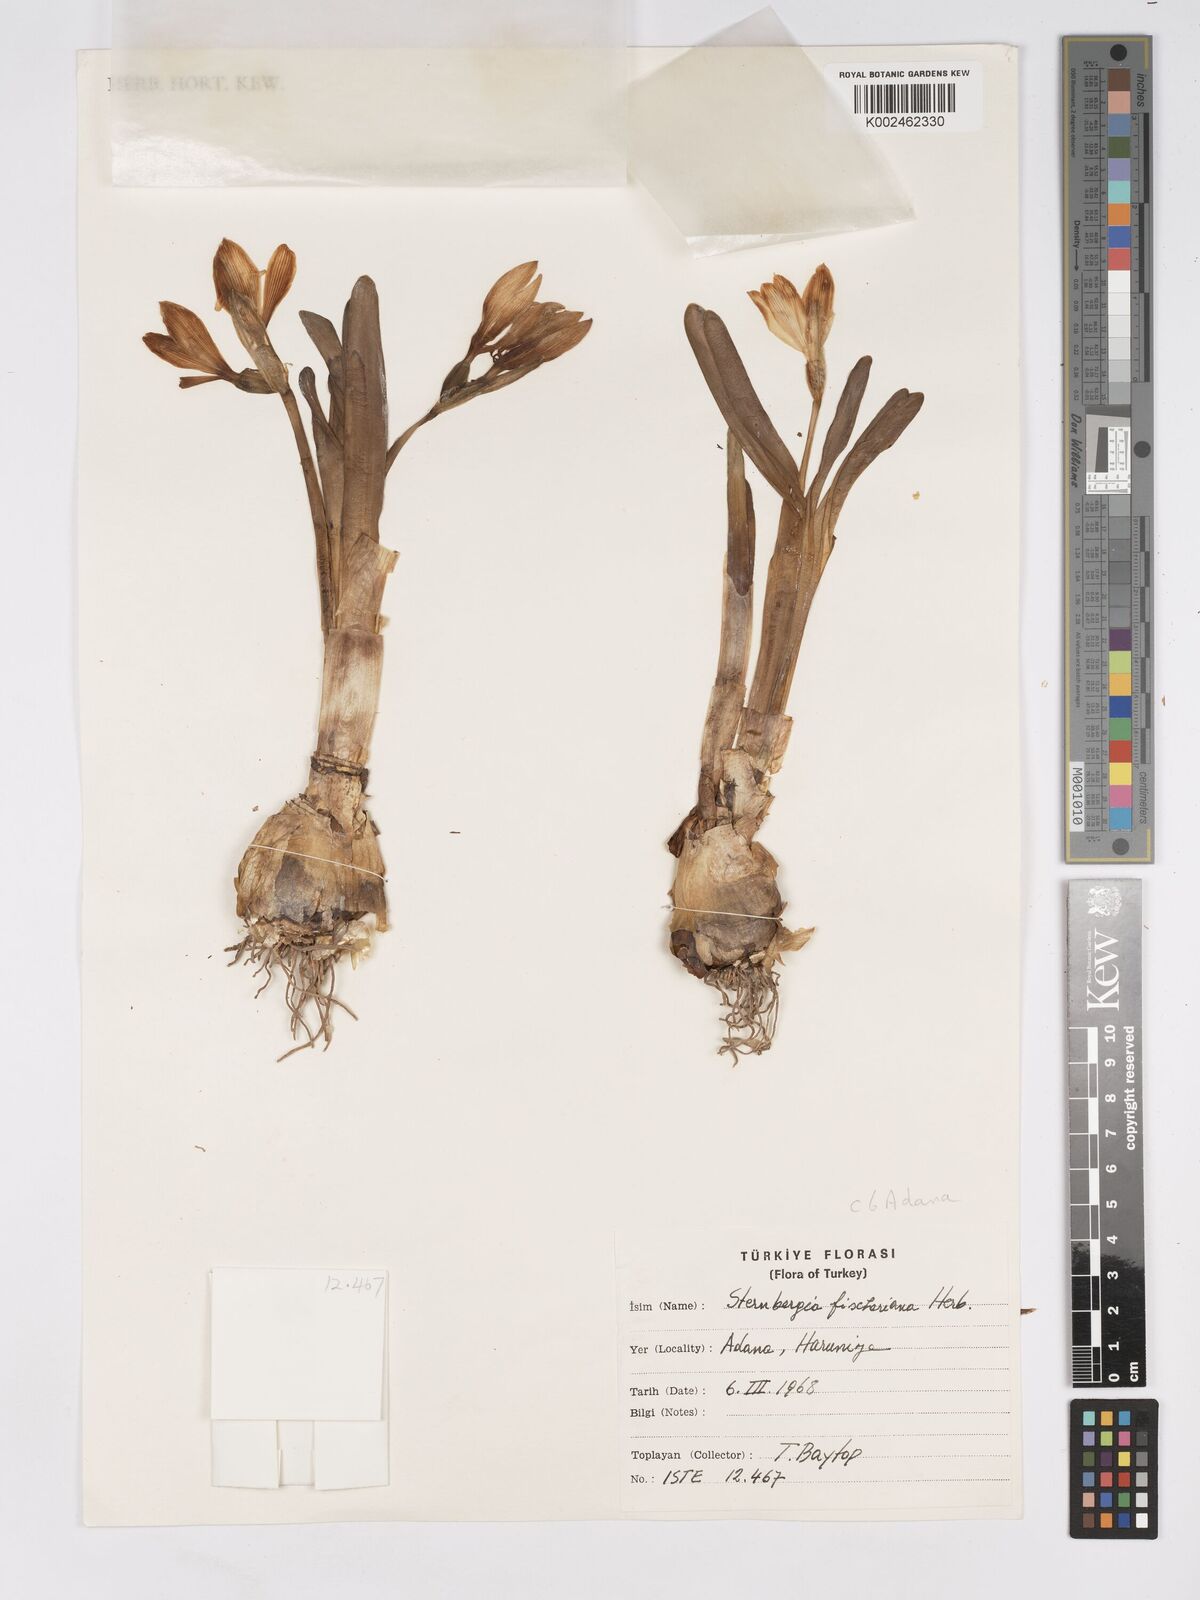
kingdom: Plantae
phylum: Tracheophyta
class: Liliopsida
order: Asparagales
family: Amaryllidaceae
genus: Sternbergia
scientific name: Sternbergia vernalis
